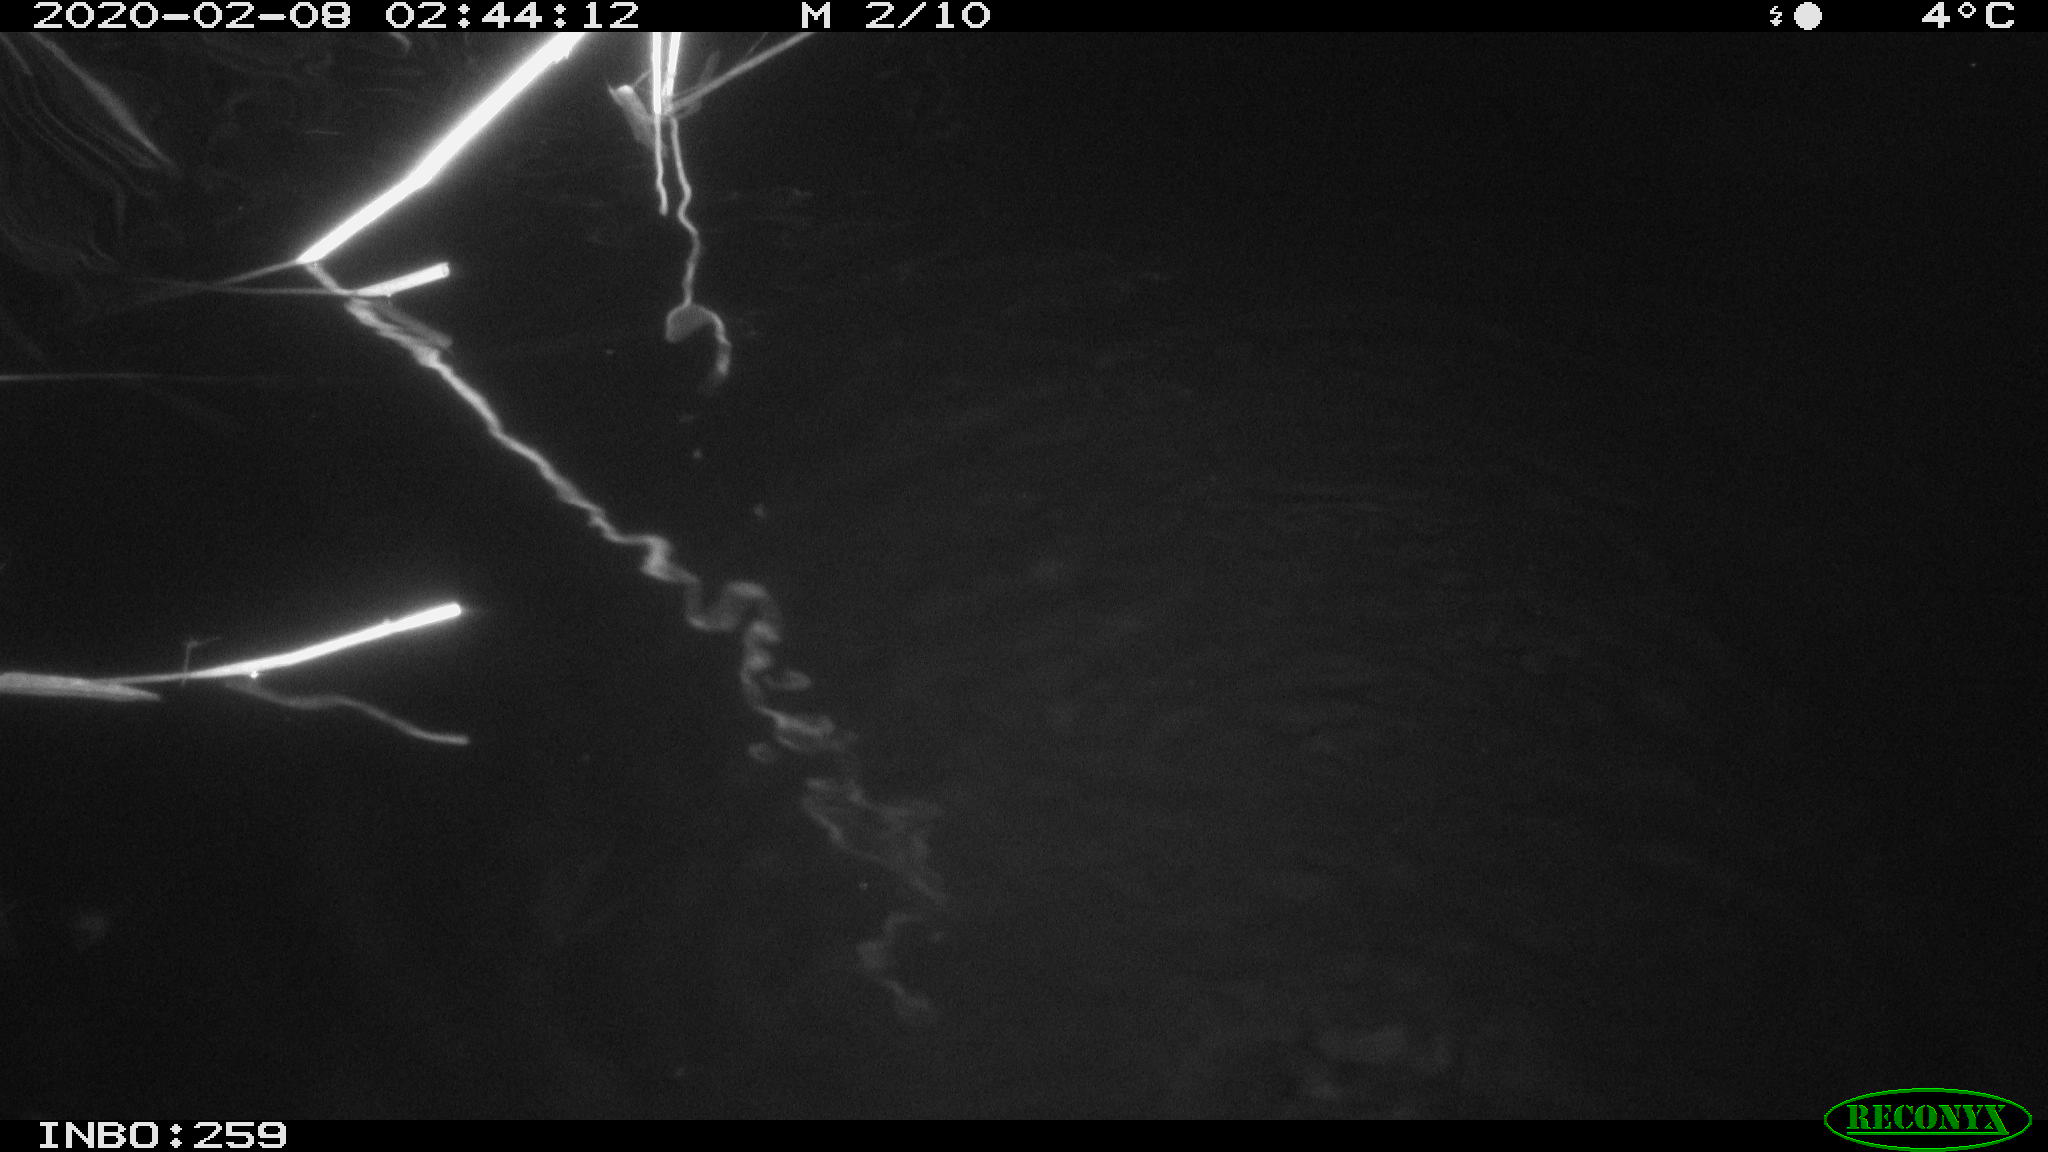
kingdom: Animalia
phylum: Chordata
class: Mammalia
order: Rodentia
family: Cricetidae
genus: Ondatra
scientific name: Ondatra zibethicus
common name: Muskrat
